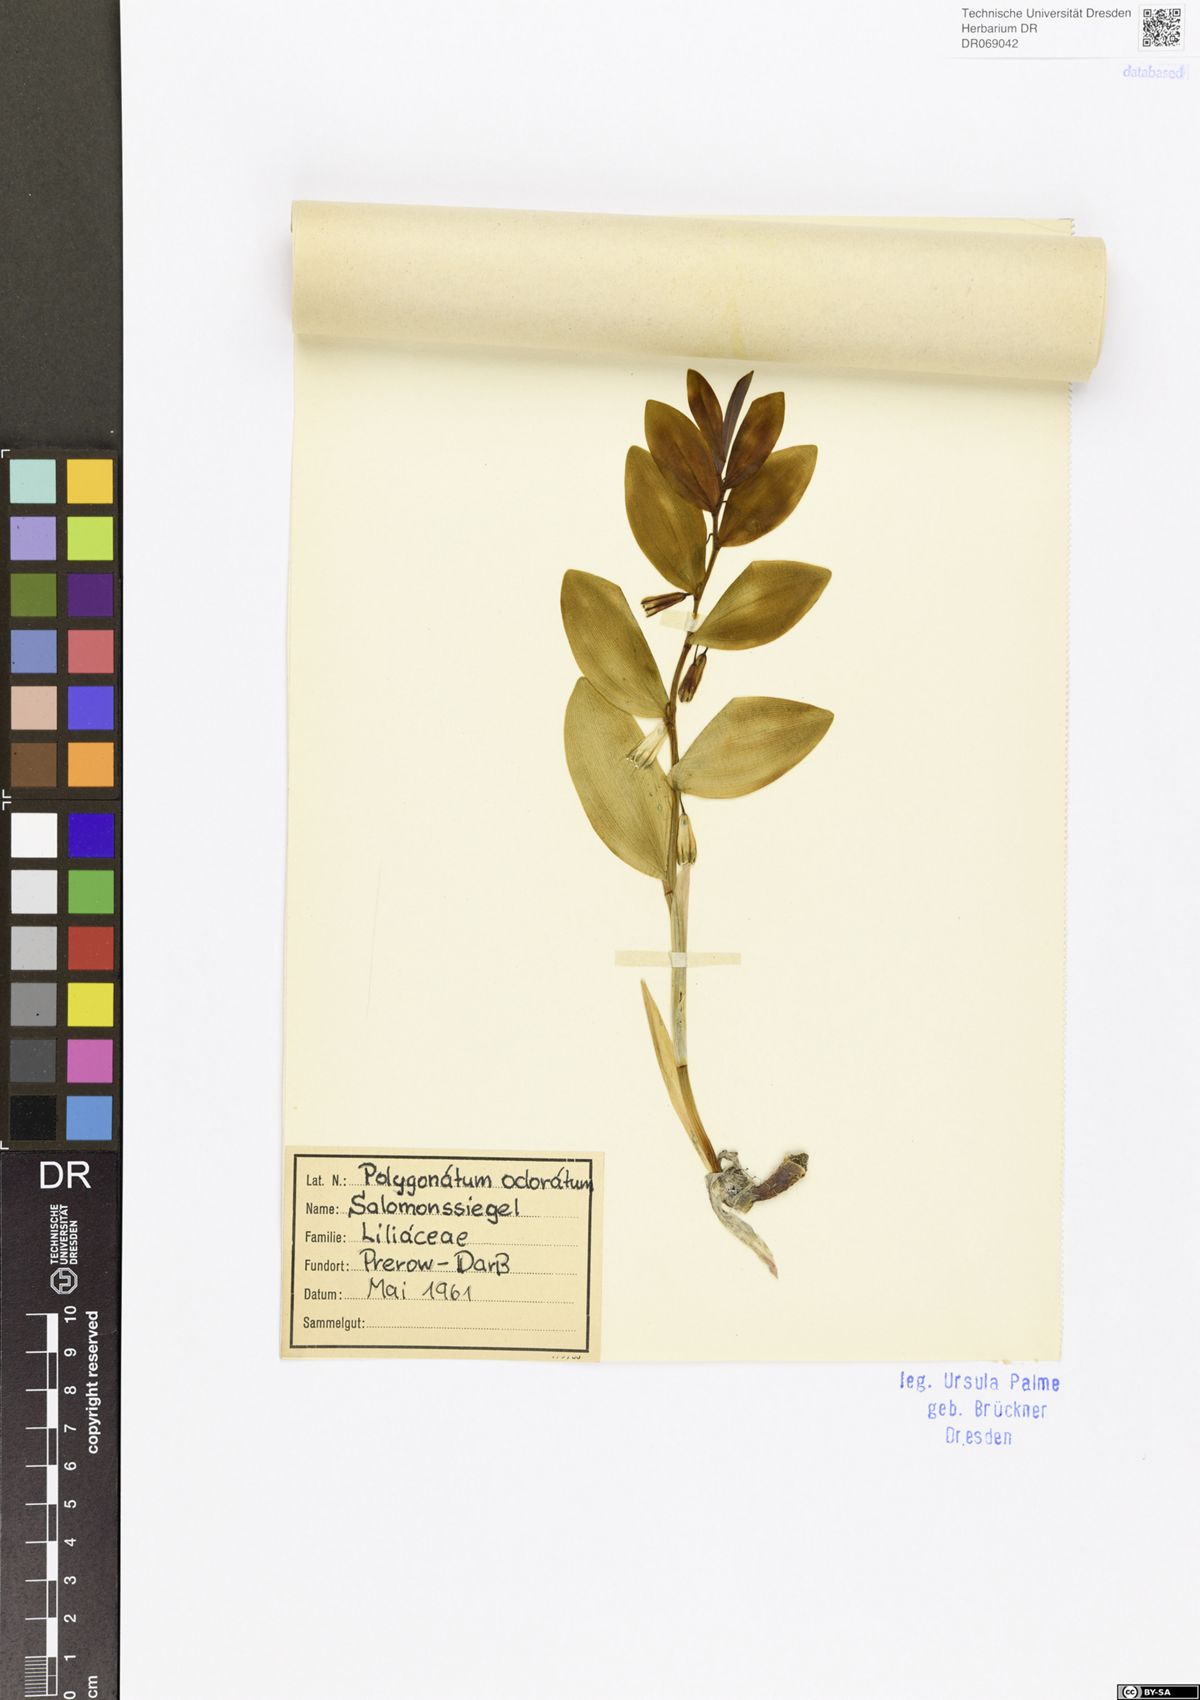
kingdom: Plantae
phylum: Tracheophyta
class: Liliopsida
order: Asparagales
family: Asparagaceae
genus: Polygonatum
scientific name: Polygonatum odoratum
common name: Angular solomon's-seal
